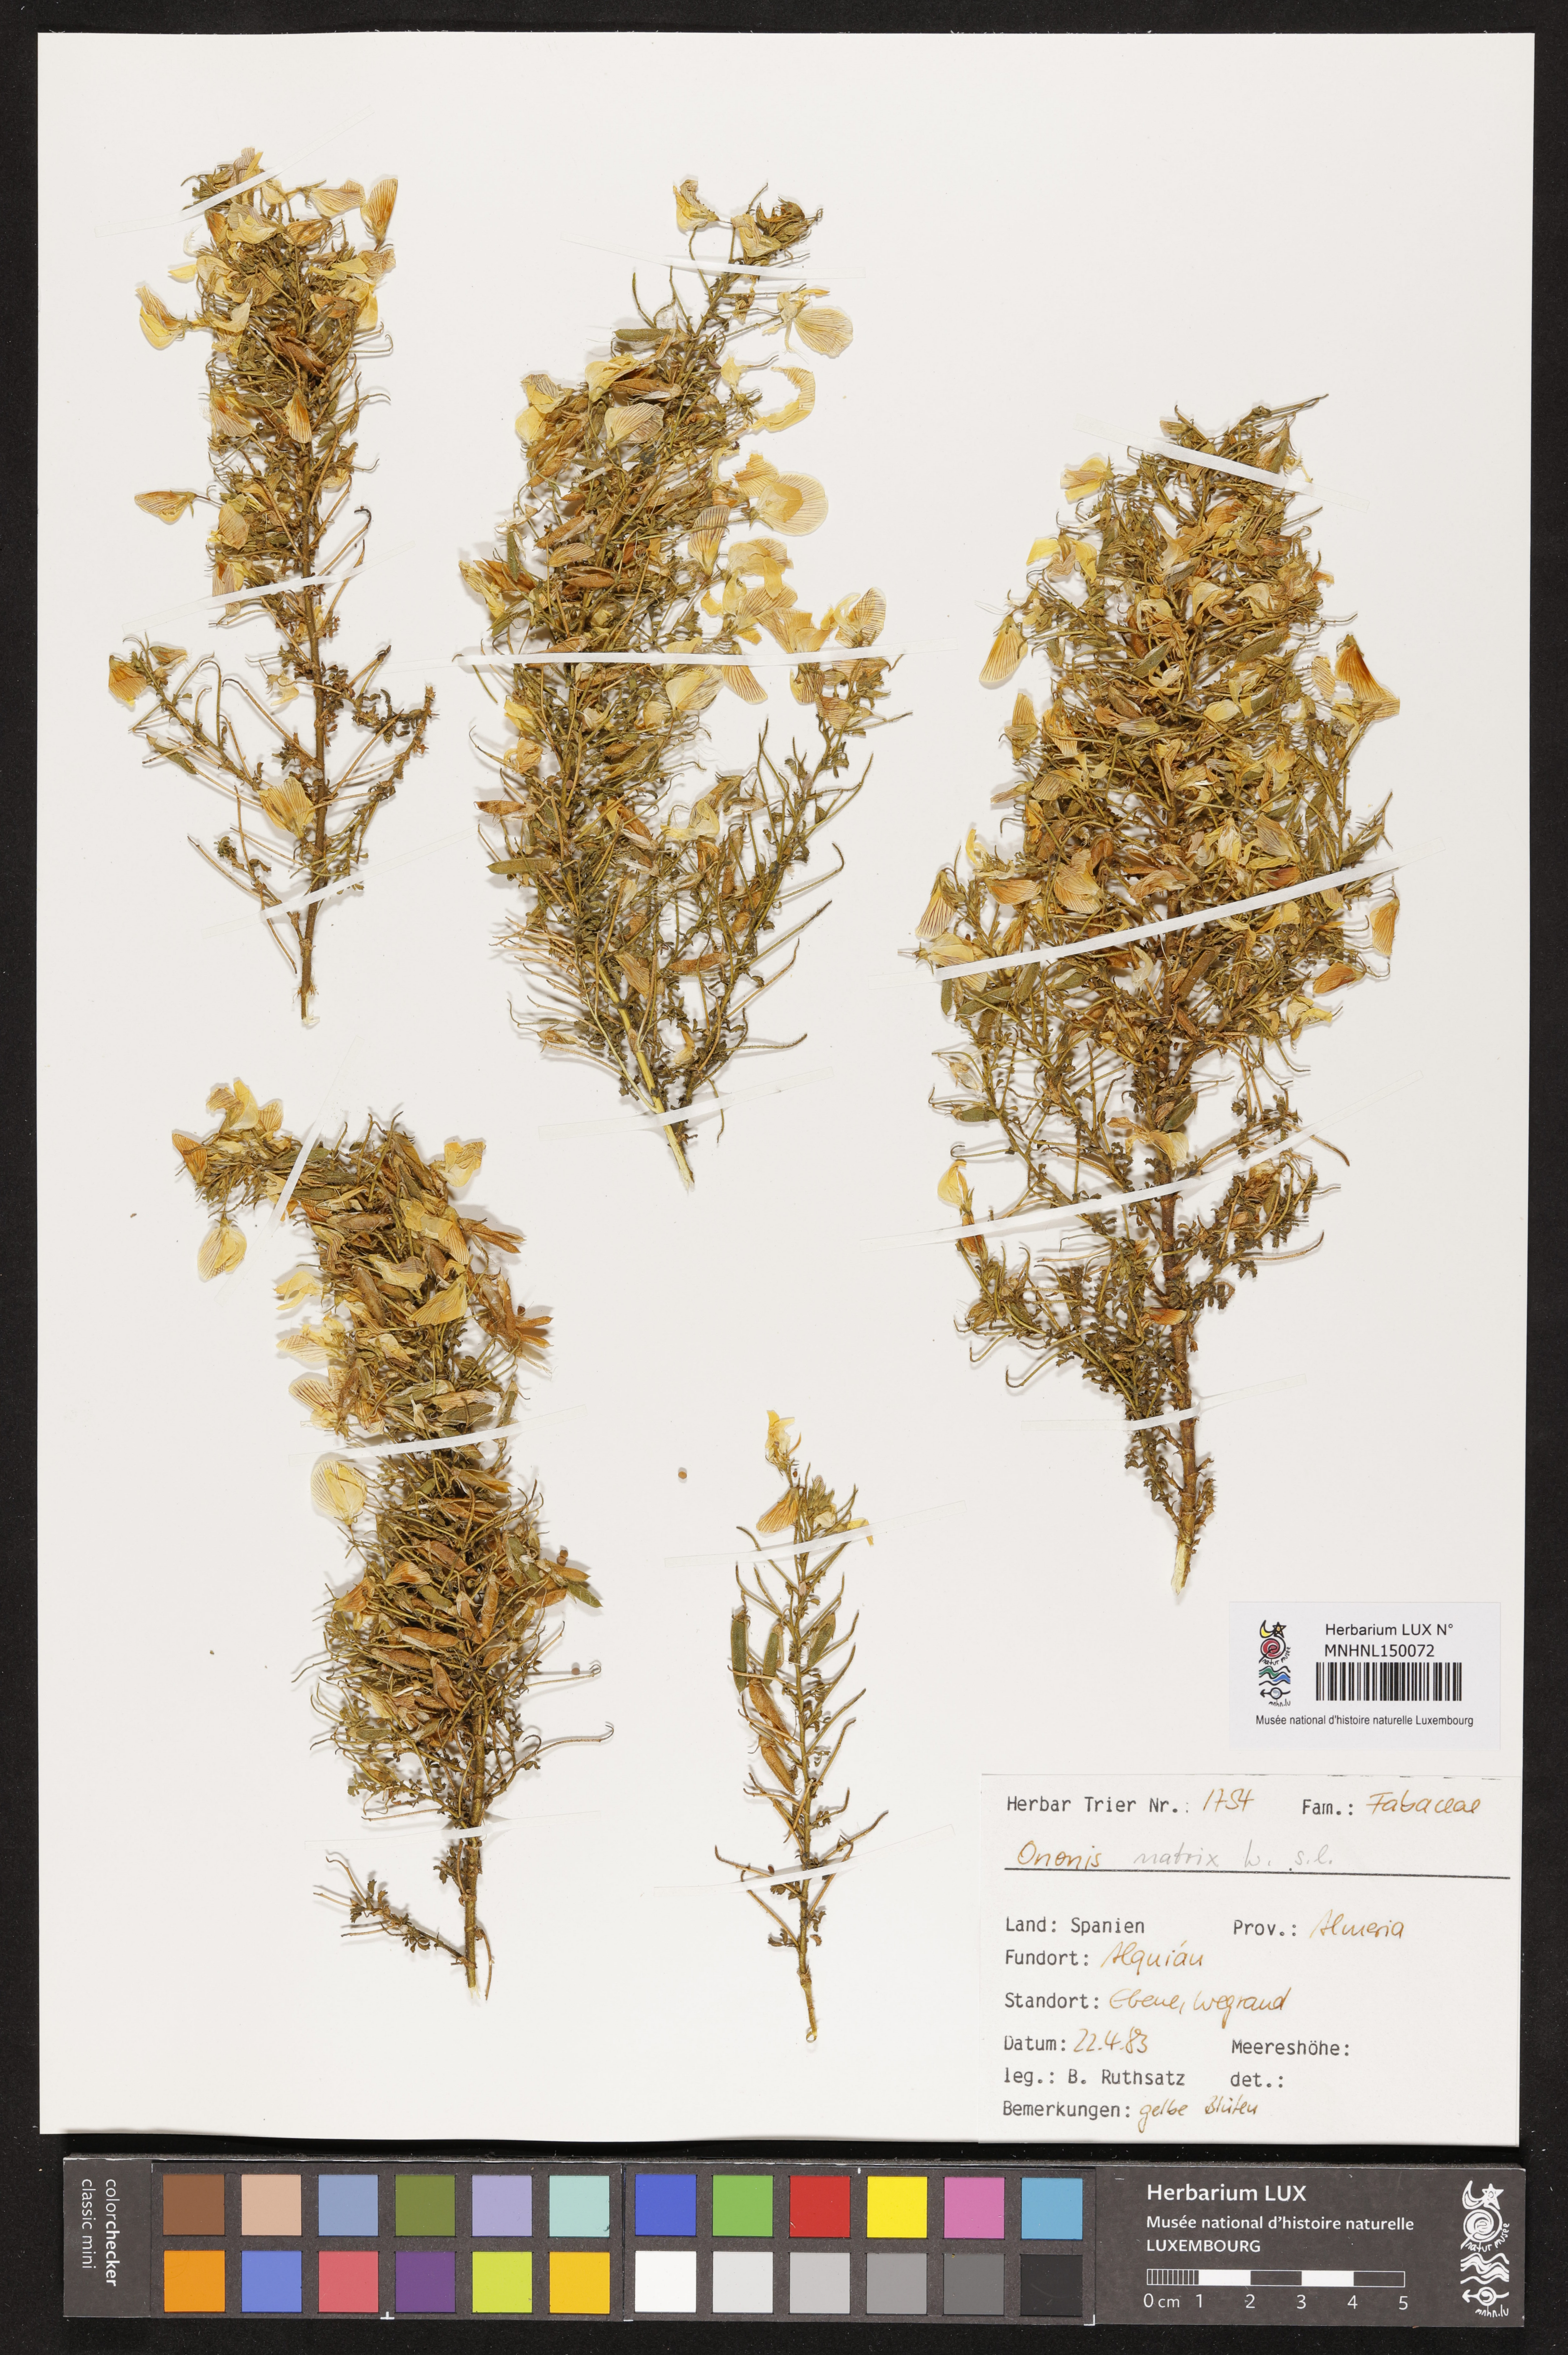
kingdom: Plantae
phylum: Tracheophyta
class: Magnoliopsida
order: Fabales
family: Fabaceae
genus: Ononis
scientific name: Ononis natrix
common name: Yellow restharrow
